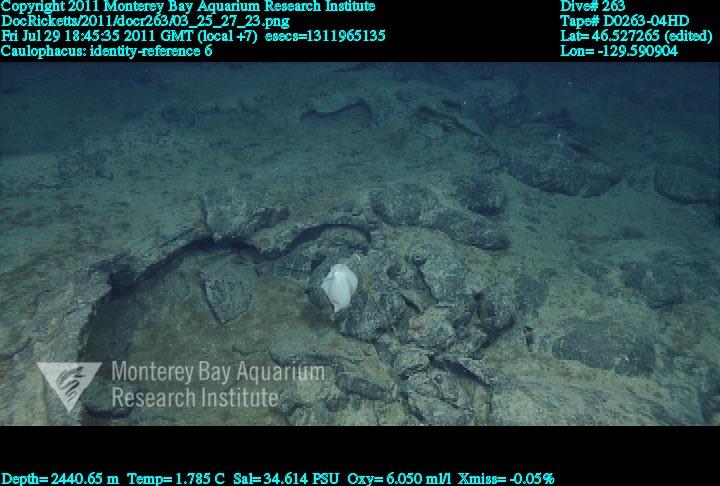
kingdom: Animalia
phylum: Porifera
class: Hexactinellida
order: Lyssacinosida
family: Rossellidae
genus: Caulophacus
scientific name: Caulophacus
